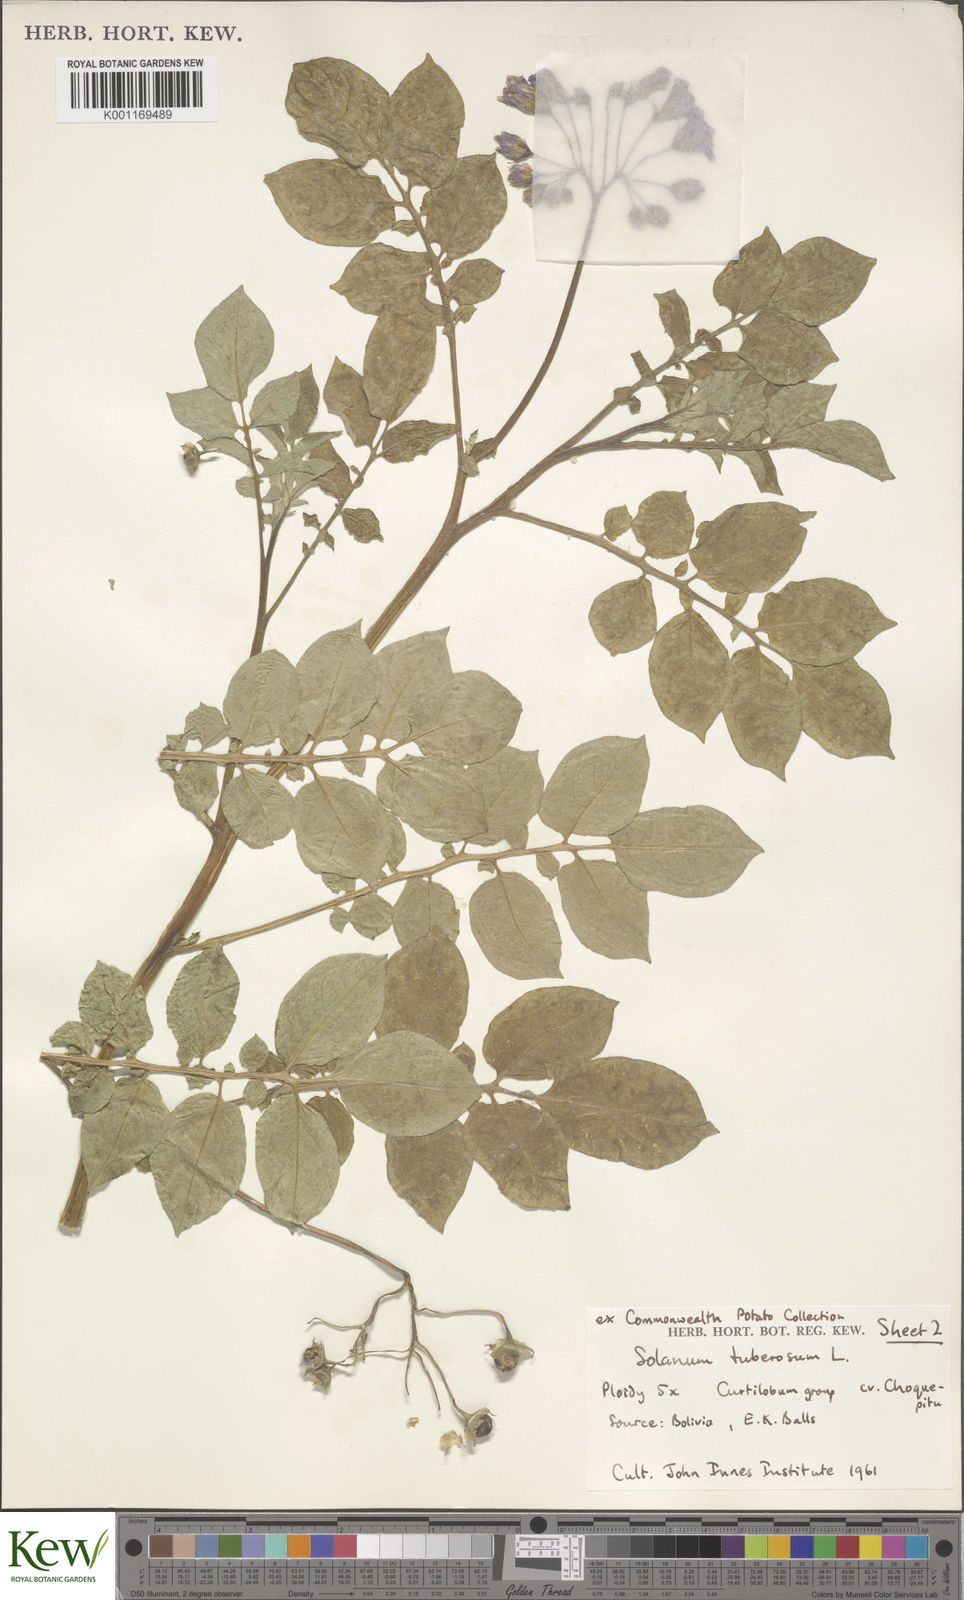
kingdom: Plantae
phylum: Tracheophyta
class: Magnoliopsida
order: Solanales
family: Solanaceae
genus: Solanum
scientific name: Solanum curtilobum
